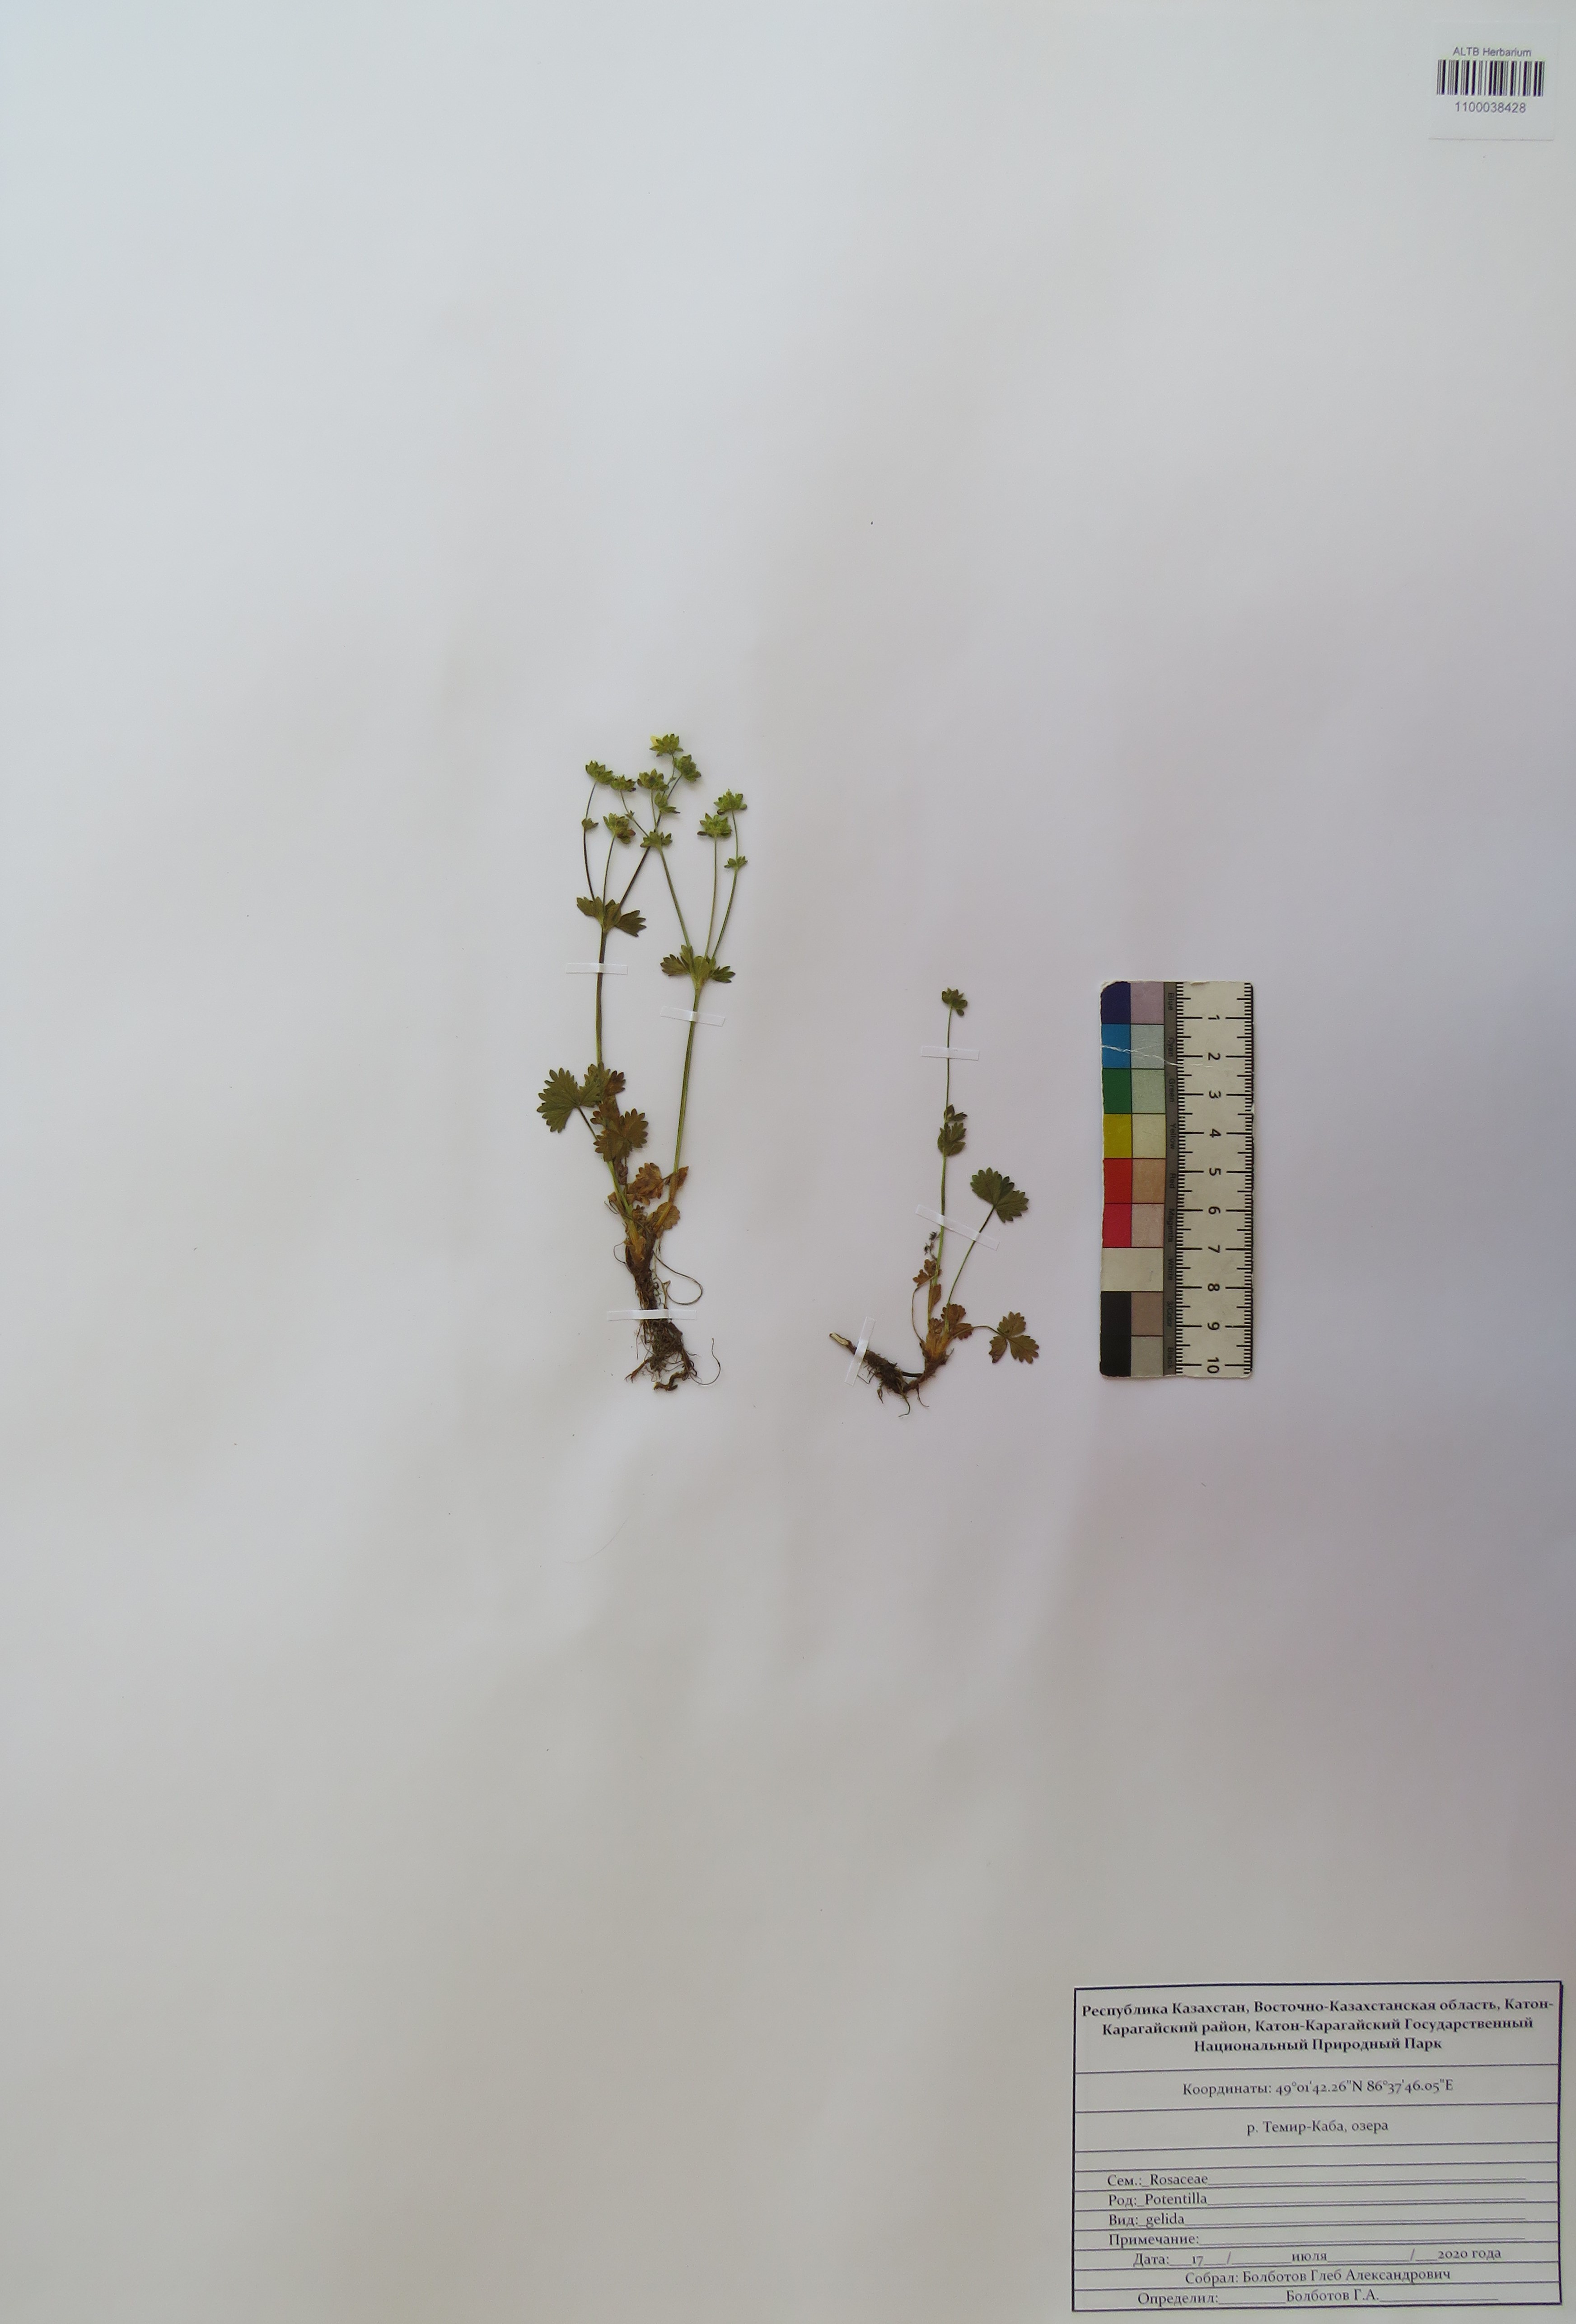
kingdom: Plantae
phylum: Tracheophyta
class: Magnoliopsida
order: Rosales
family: Rosaceae
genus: Potentilla
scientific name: Potentilla crantzii
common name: Alpine cinquefoil
